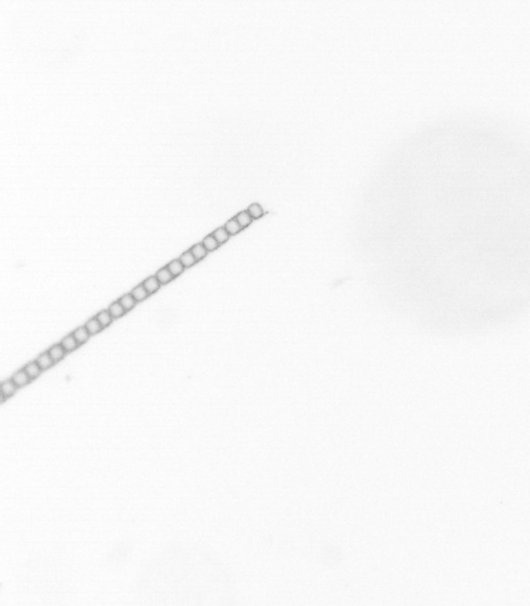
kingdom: Chromista
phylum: Ochrophyta
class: Bacillariophyceae
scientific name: Bacillariophyceae
